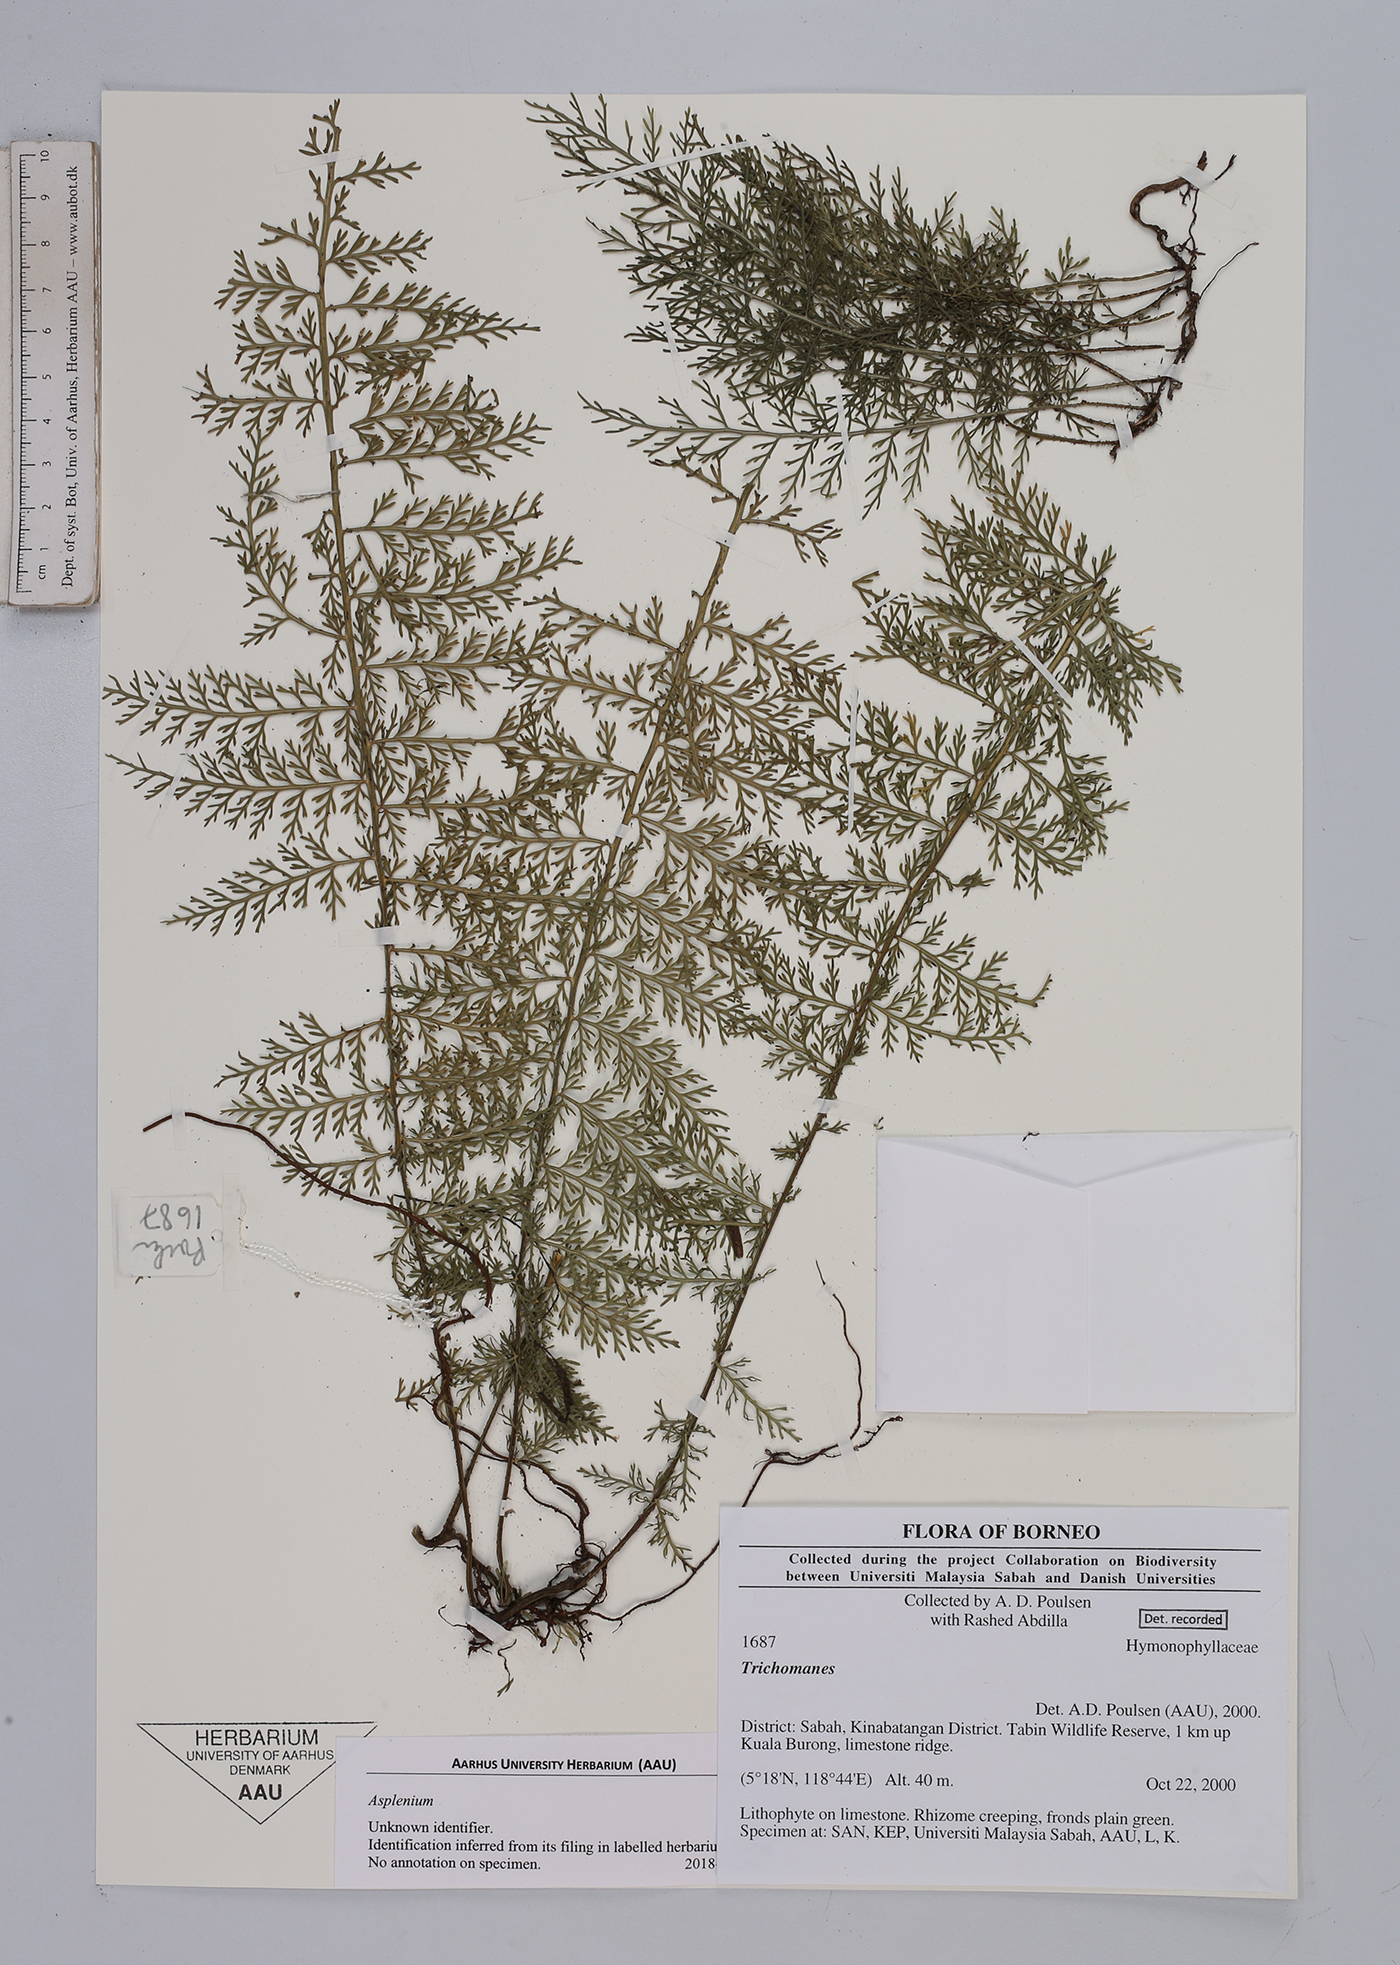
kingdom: Plantae
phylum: Tracheophyta
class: Polypodiopsida
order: Polypodiales
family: Aspleniaceae
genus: Asplenium
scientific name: Asplenium
